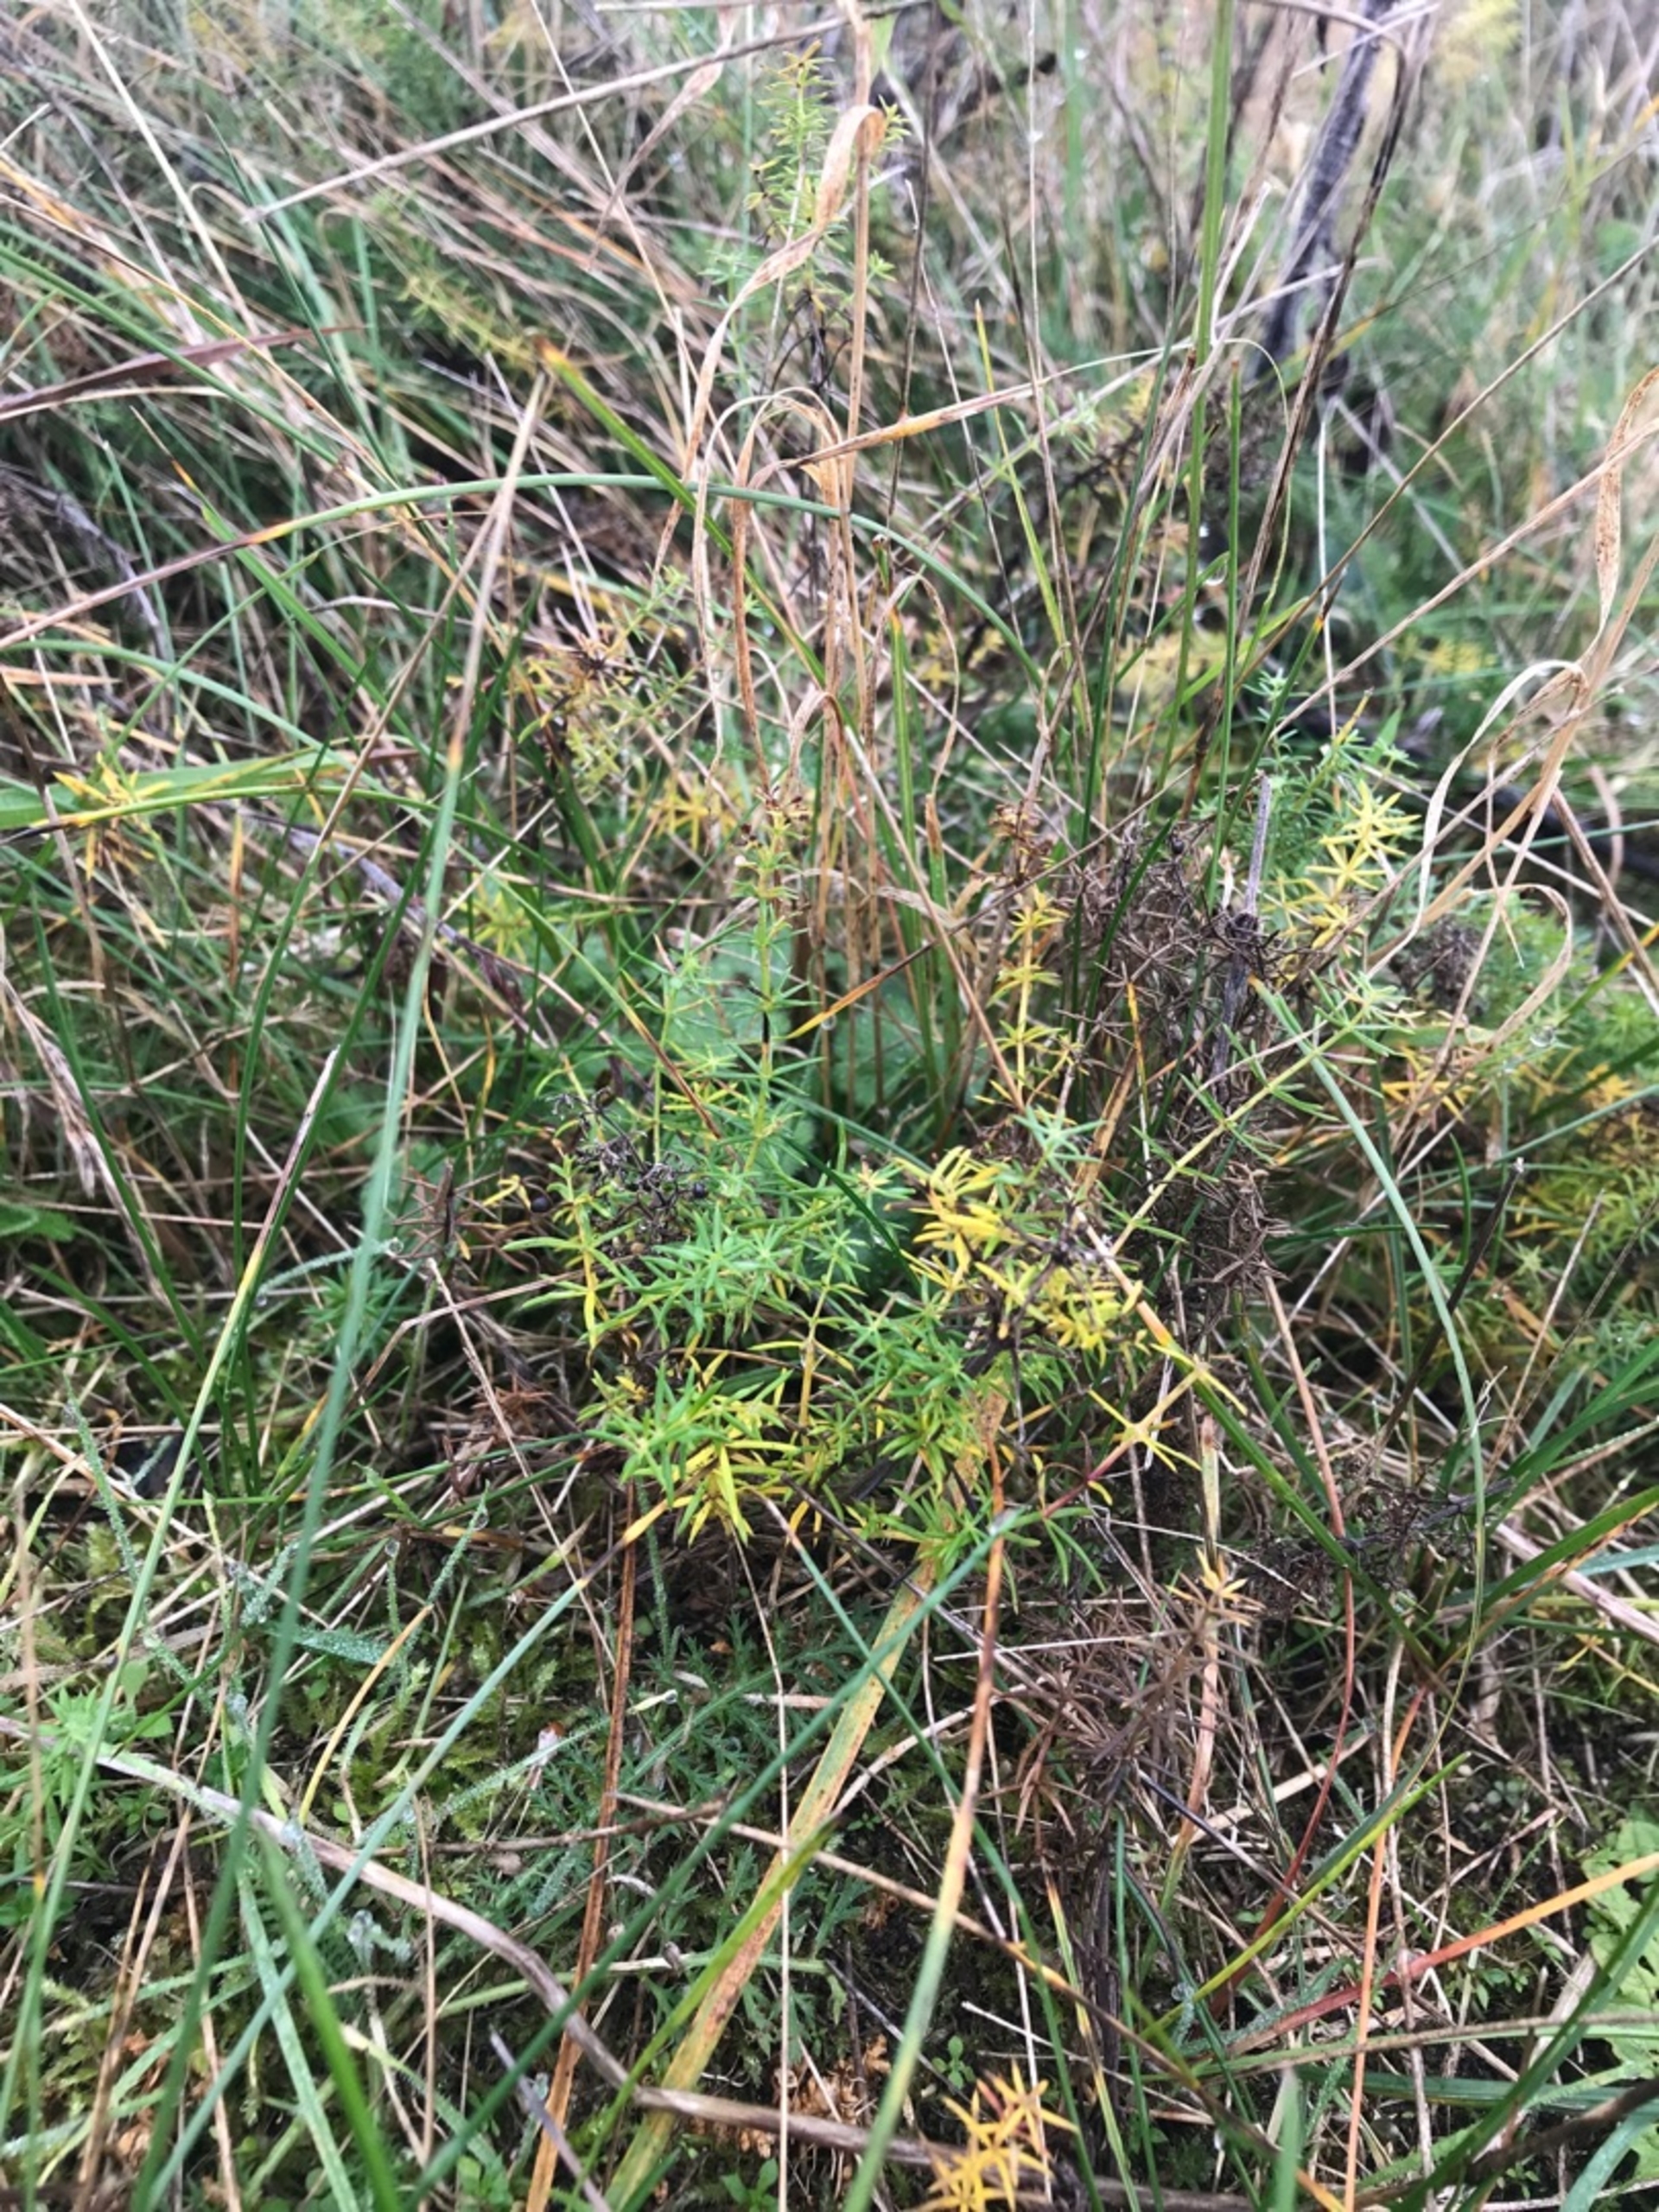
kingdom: Plantae
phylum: Tracheophyta
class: Magnoliopsida
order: Gentianales
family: Rubiaceae
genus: Galium
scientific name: Galium verum
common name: Gul snerre
